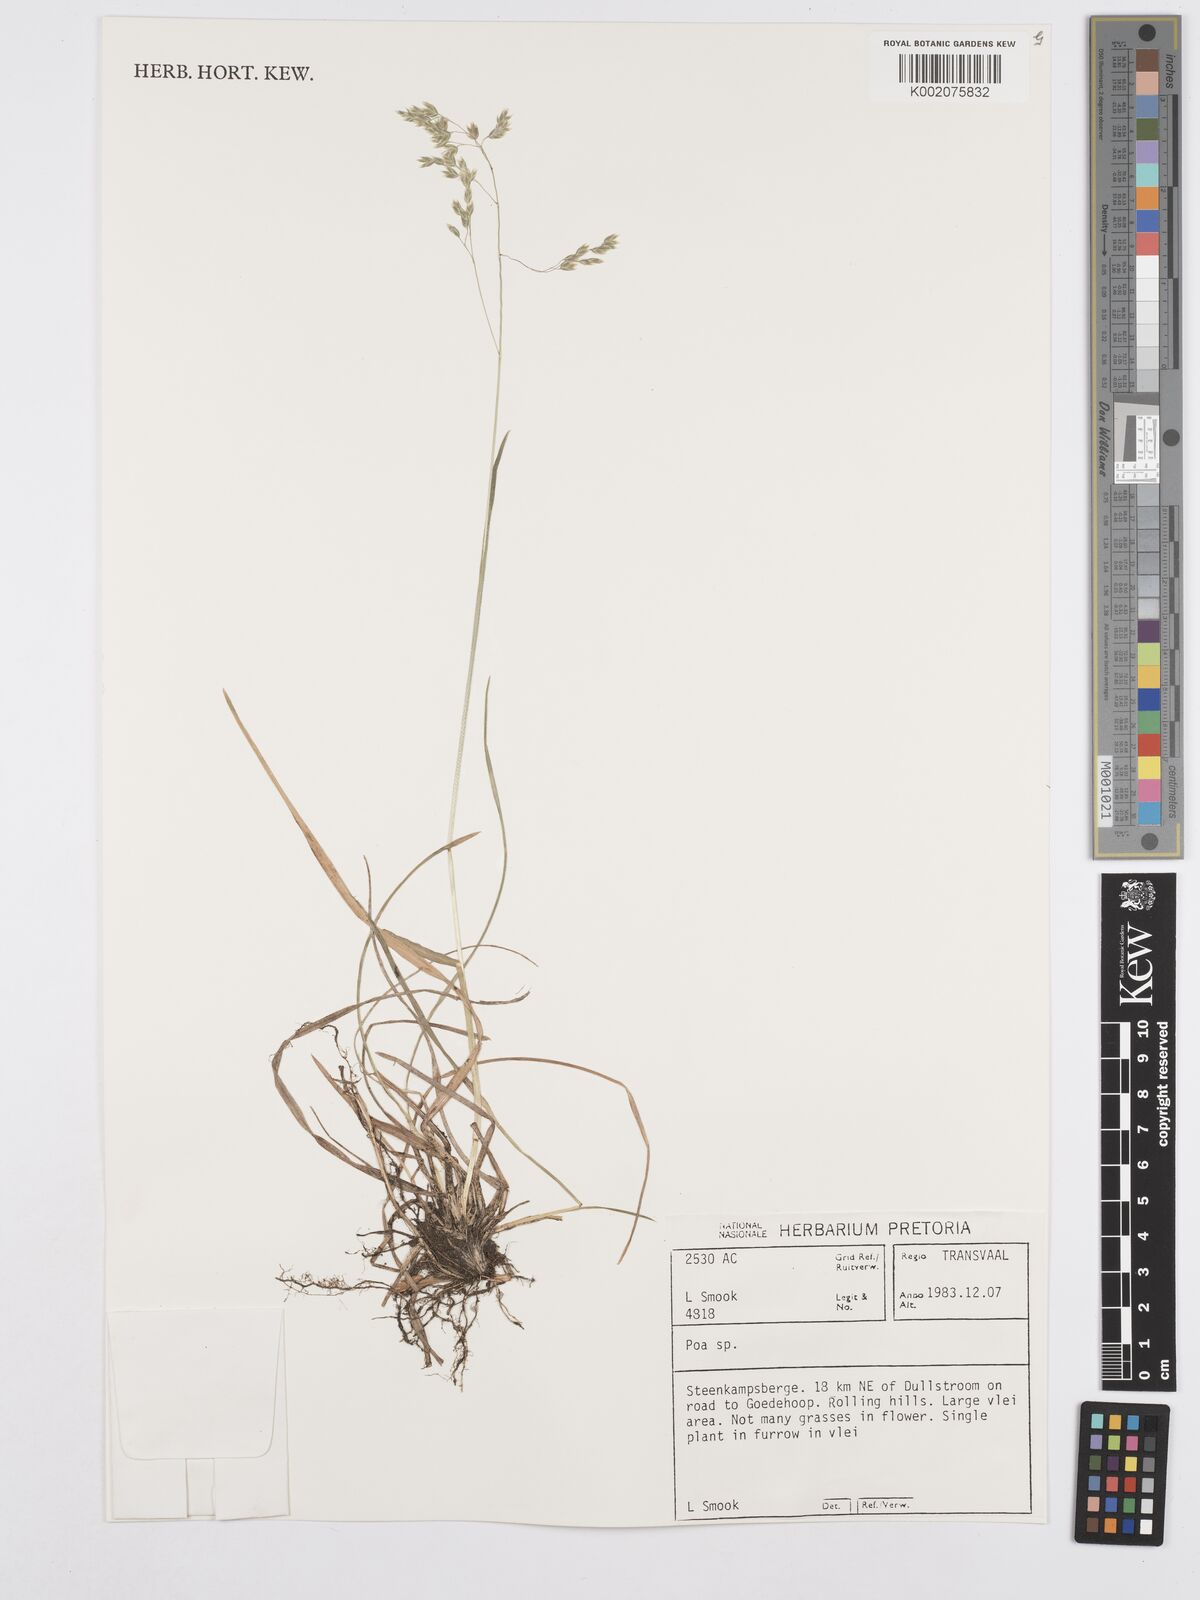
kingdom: Plantae
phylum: Tracheophyta
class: Liliopsida
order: Poales
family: Poaceae
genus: Poa
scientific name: Poa
